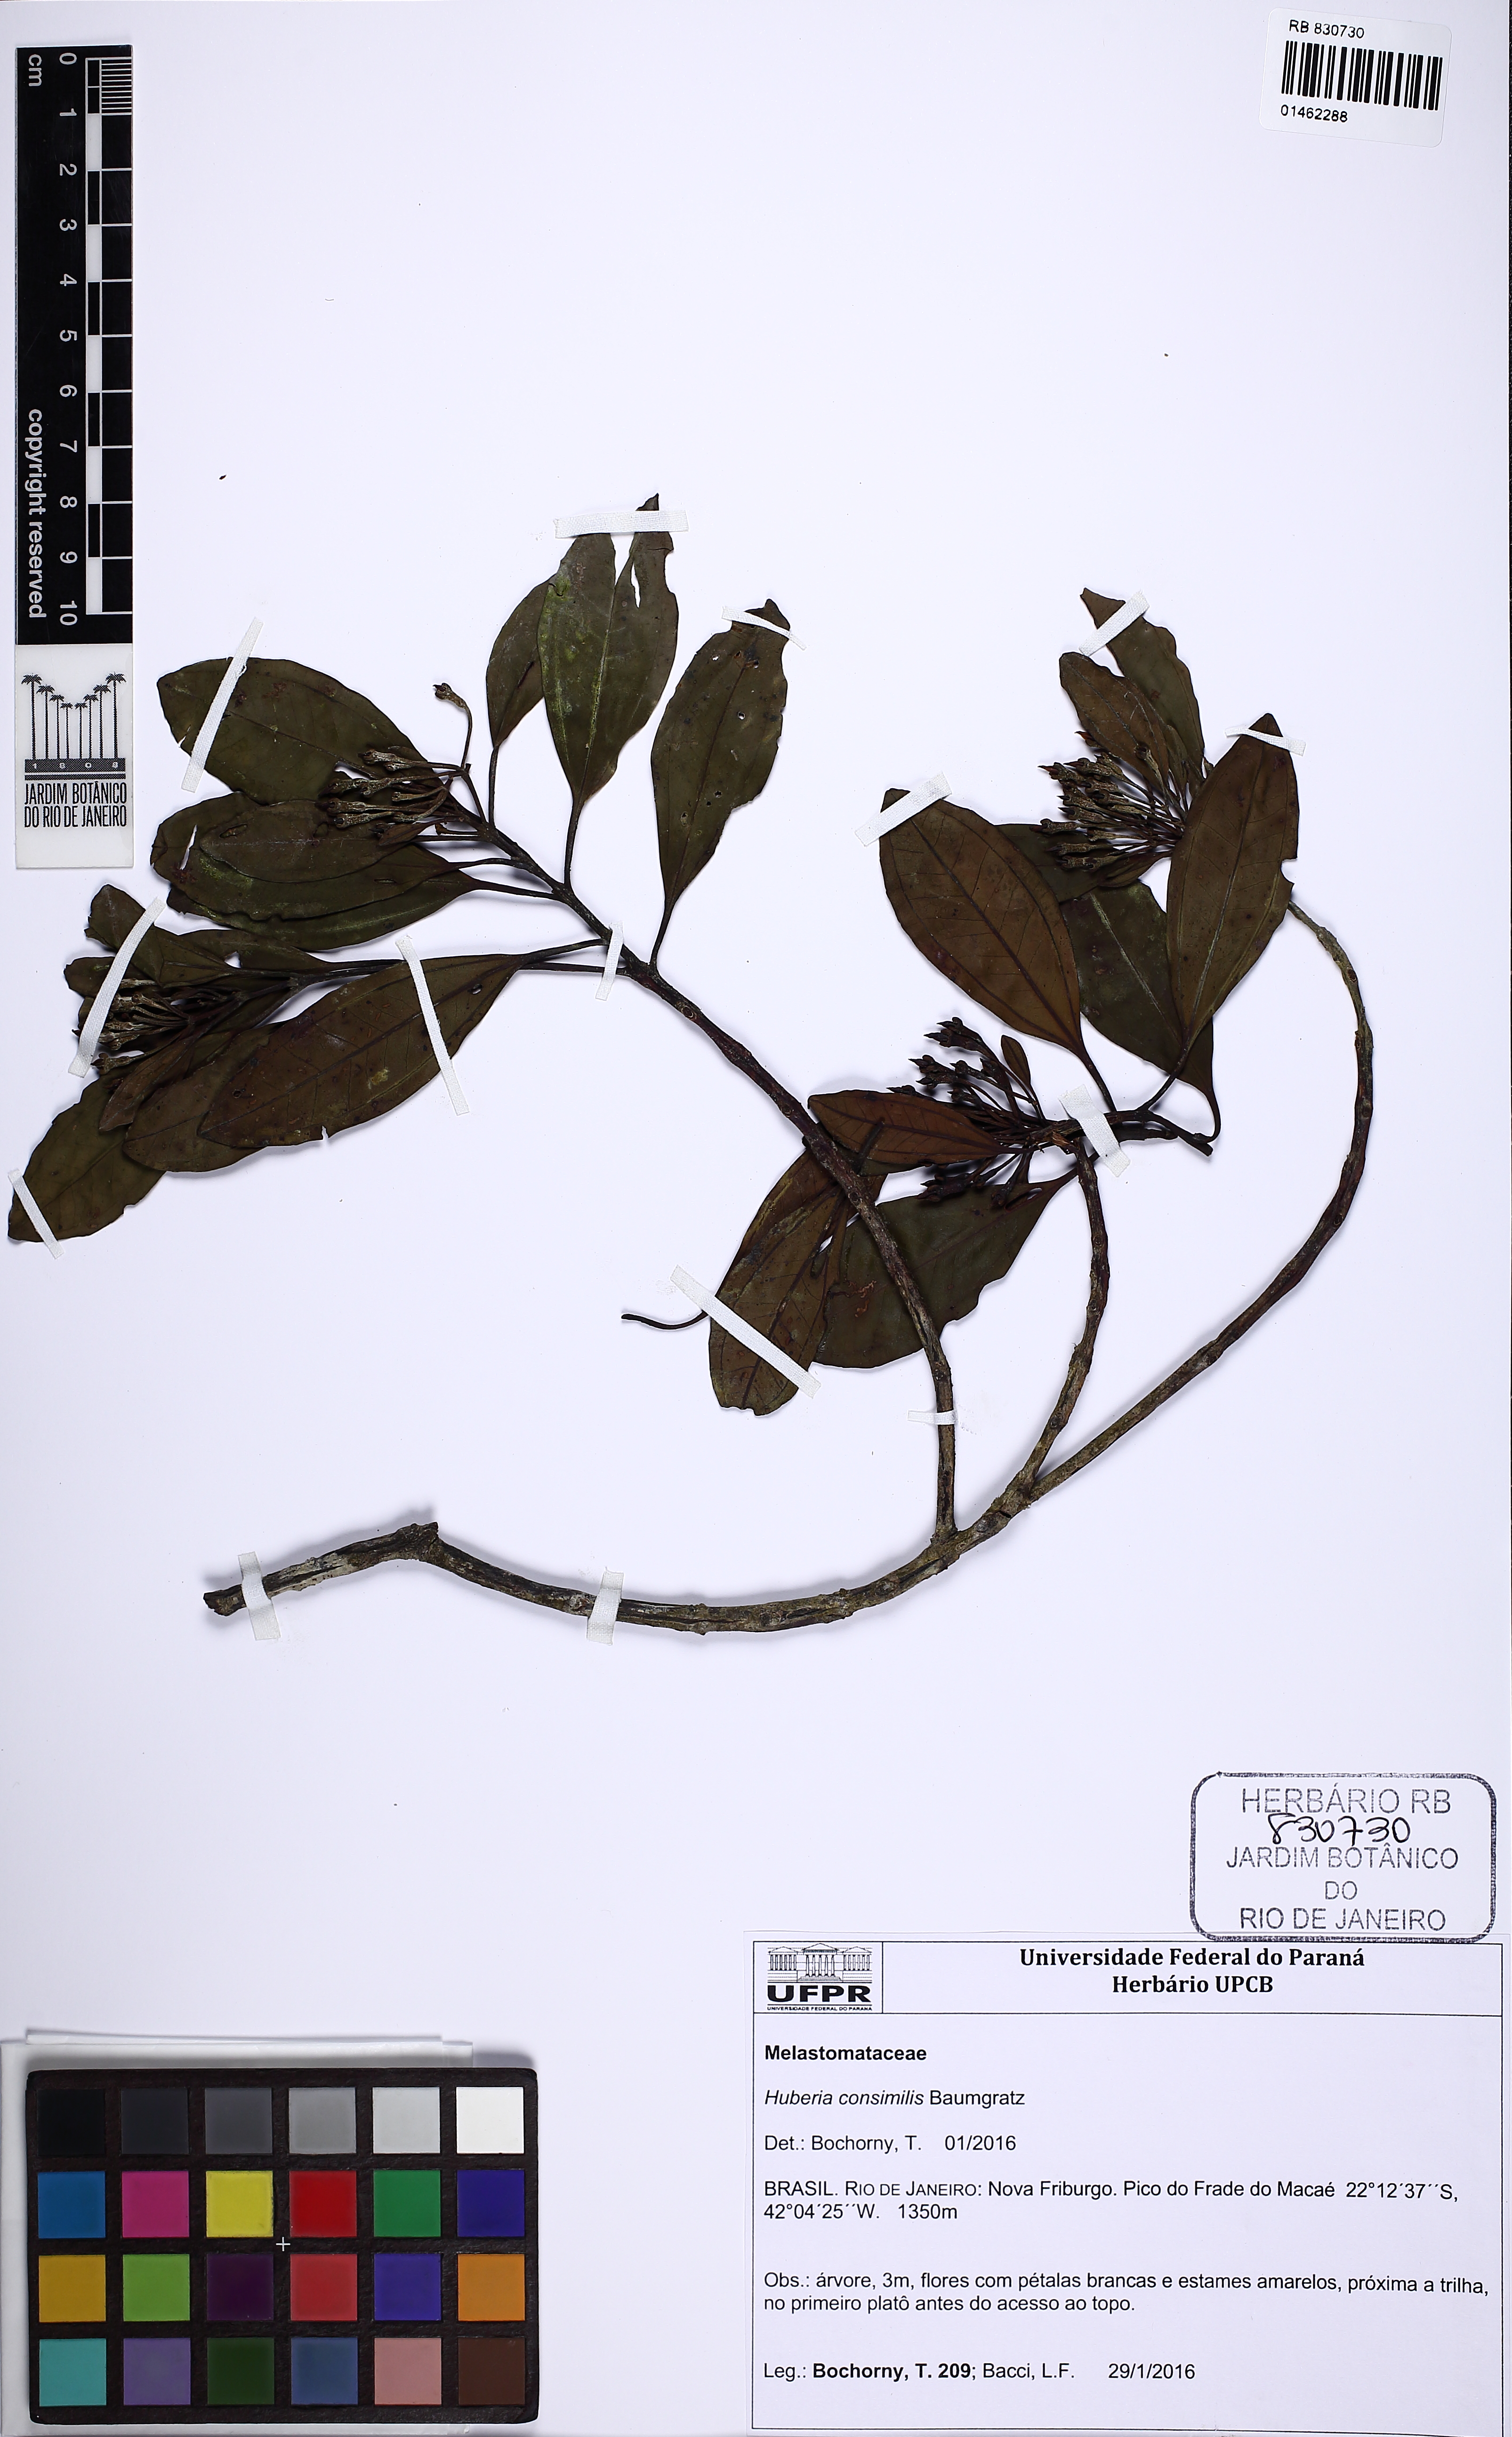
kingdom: Plantae
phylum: Tracheophyta
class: Magnoliopsida
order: Myrtales
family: Melastomataceae
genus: Huberia
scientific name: Huberia consimilis
